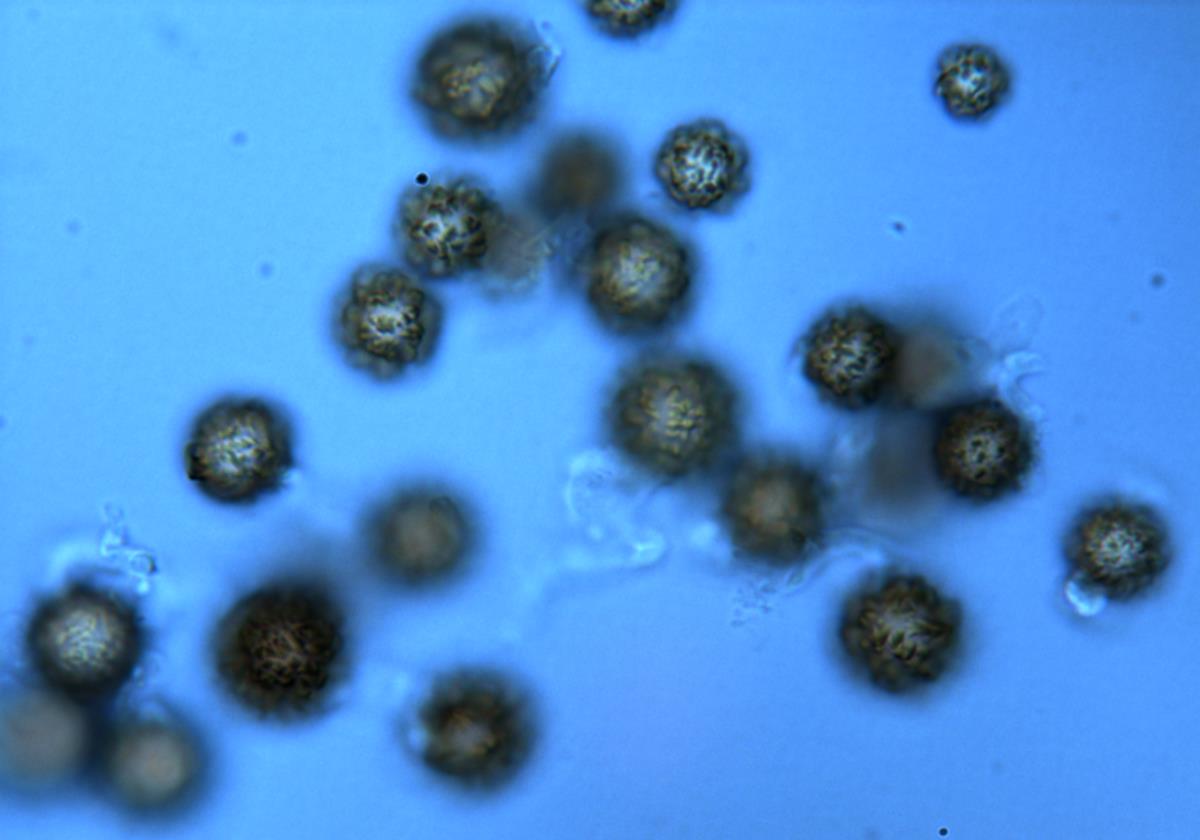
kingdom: Fungi
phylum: Basidiomycota
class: Agaricomycetes
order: Boletales
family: Sclerodermataceae
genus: Pisolithus
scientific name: Pisolithus albus
